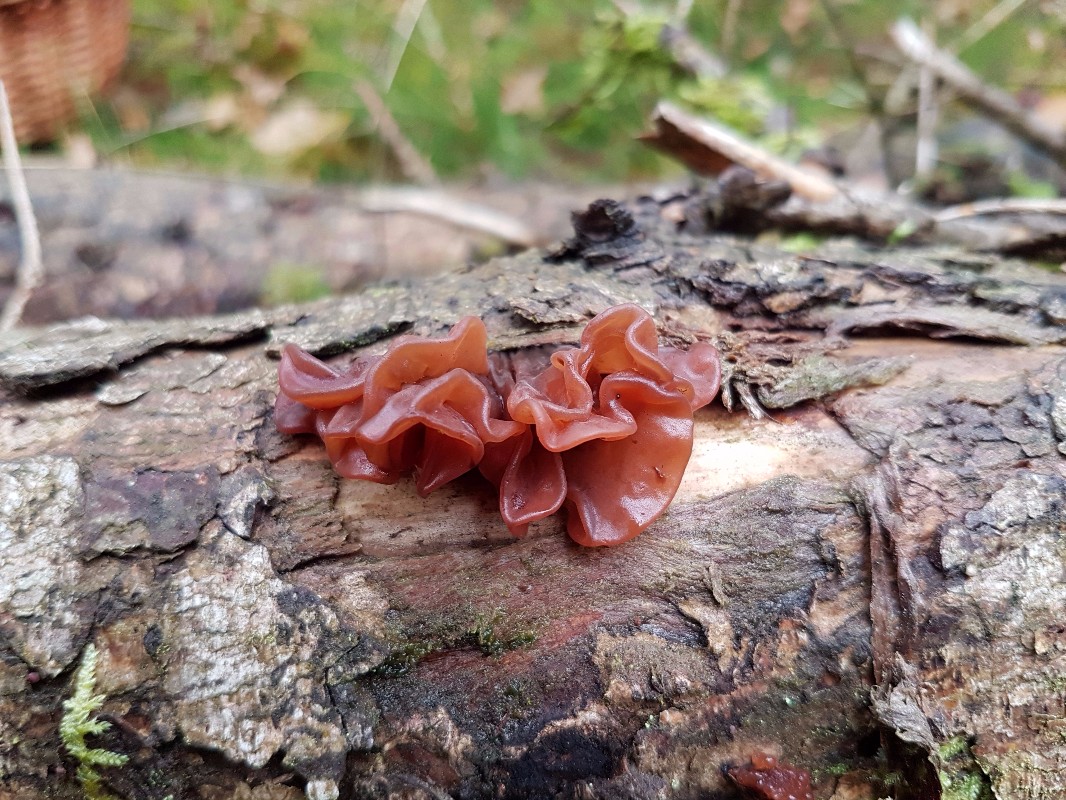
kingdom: Fungi
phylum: Basidiomycota
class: Tremellomycetes
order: Tremellales
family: Tremellaceae
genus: Phaeotremella
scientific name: Phaeotremella foliacea
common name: brun bævresvamp
